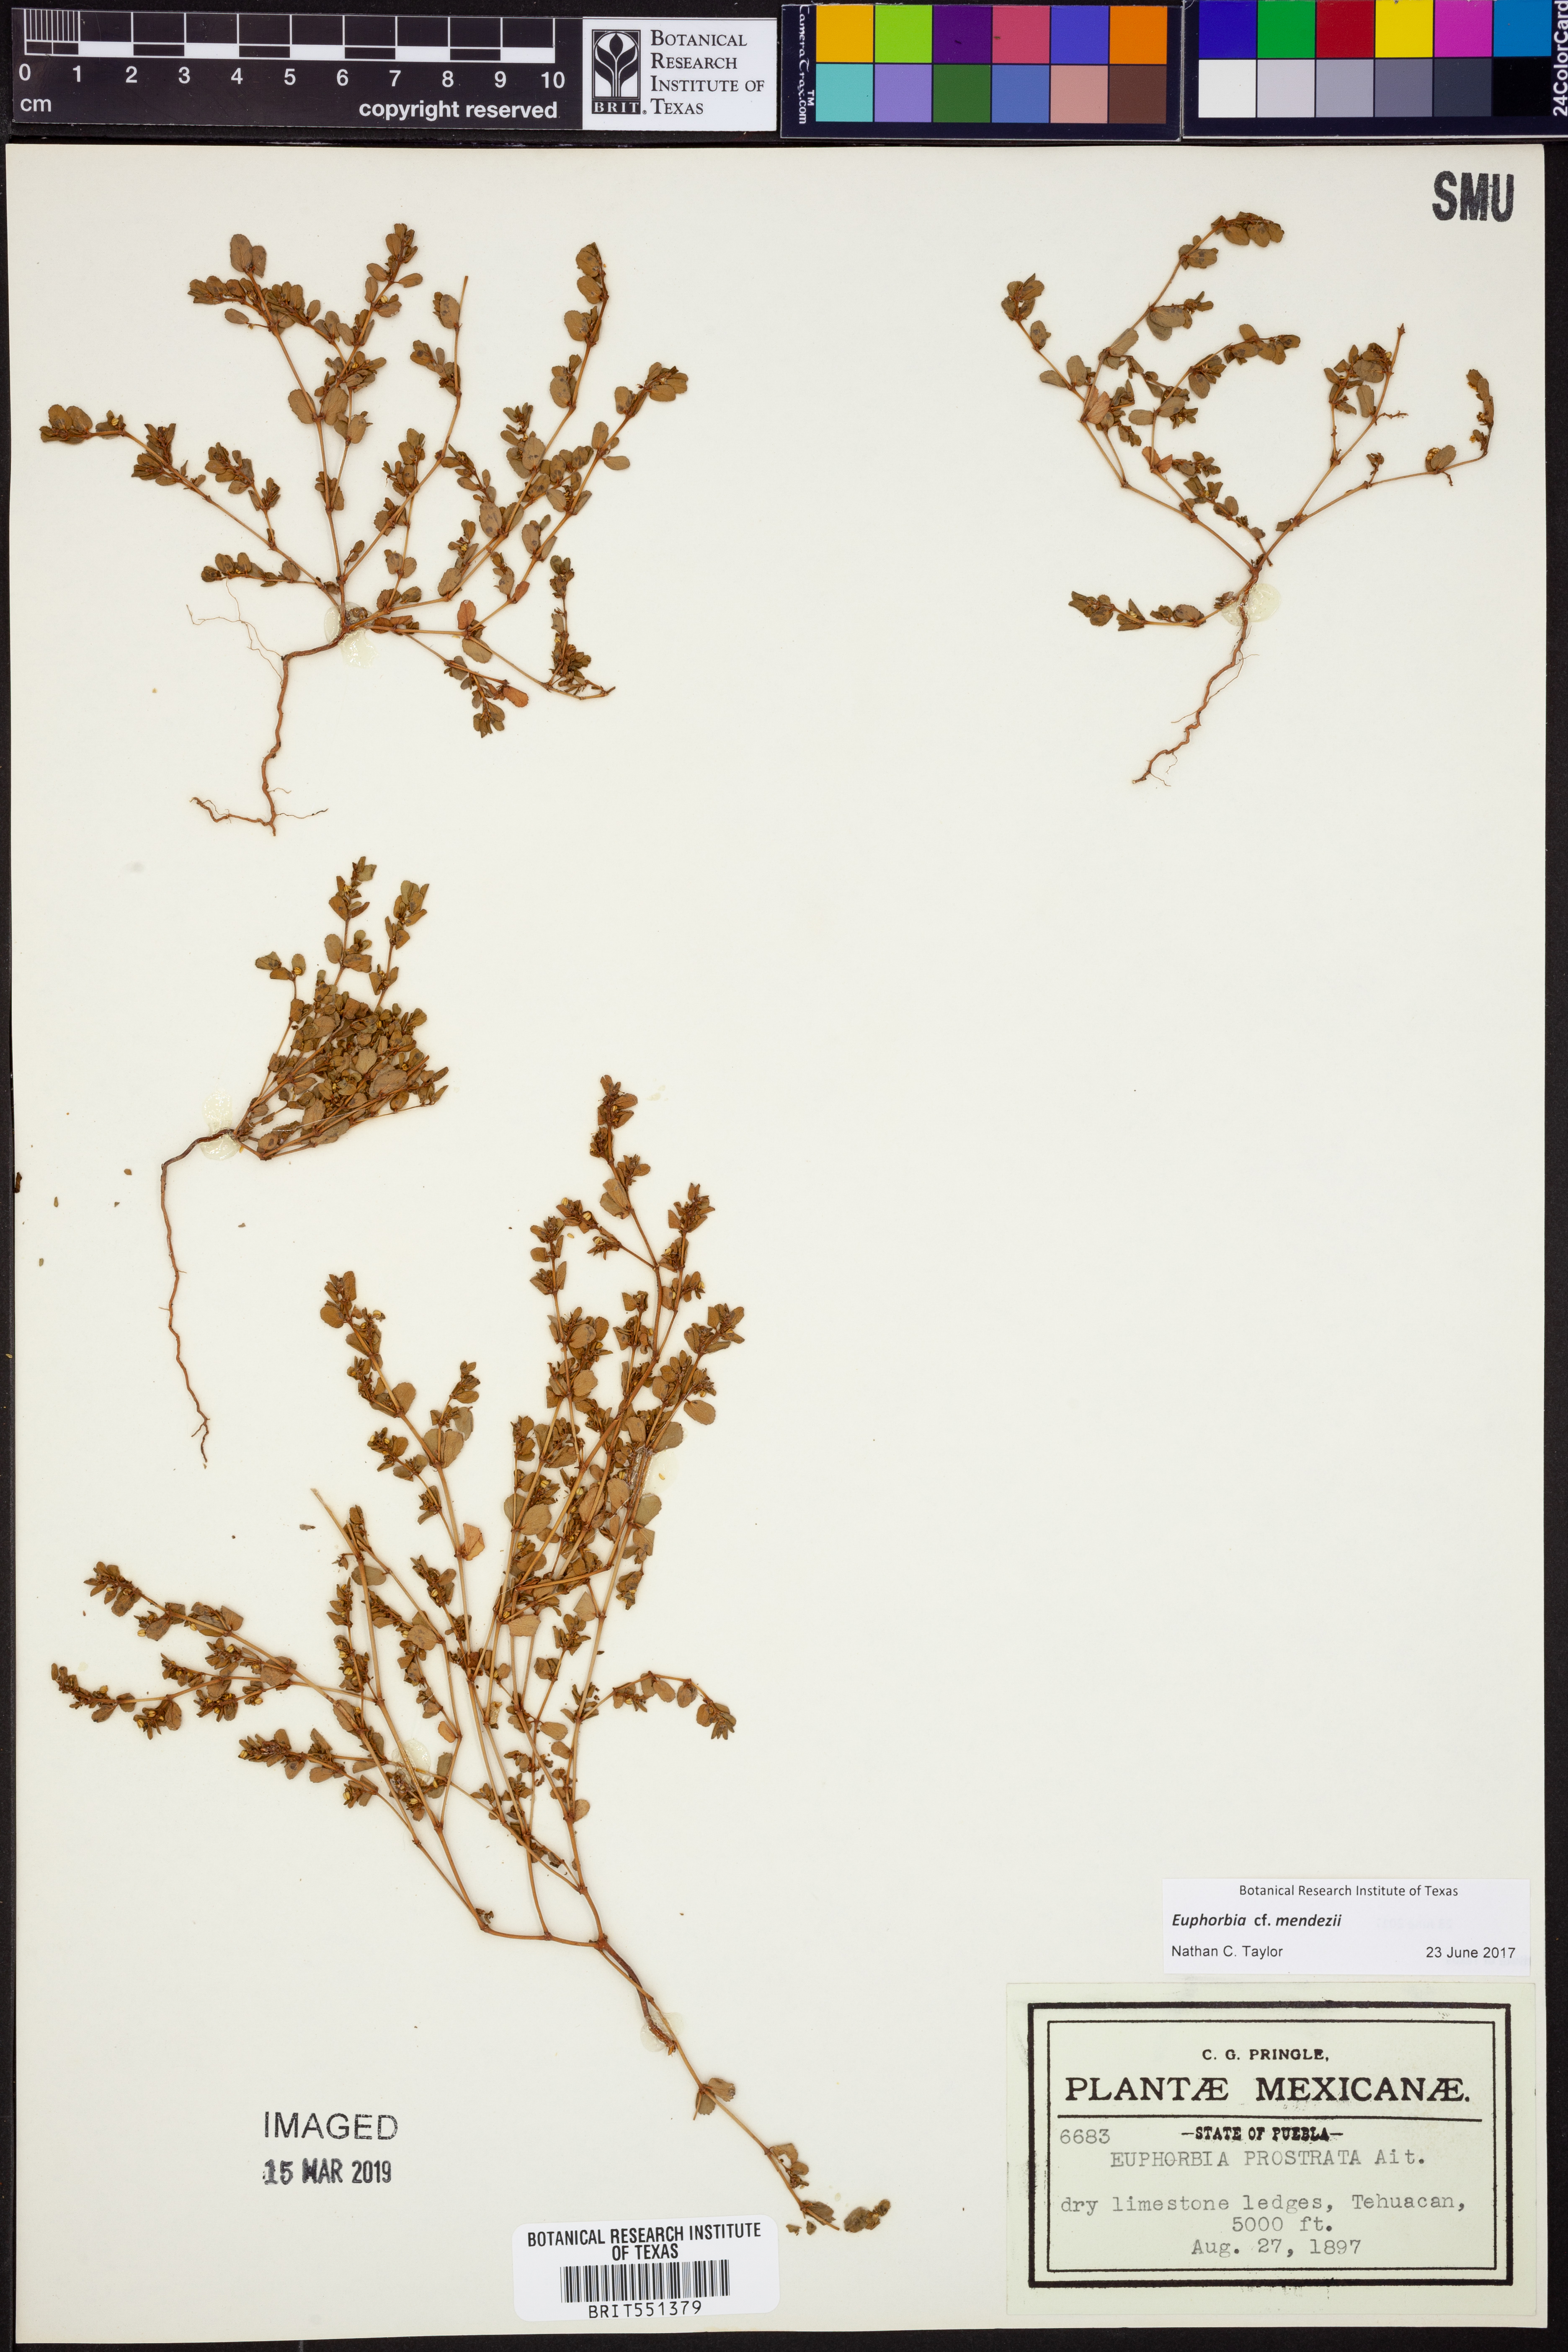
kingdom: Plantae
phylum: Tracheophyta
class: Magnoliopsida
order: Malpighiales
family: Euphorbiaceae
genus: Euphorbia
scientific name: Euphorbia mendezii
